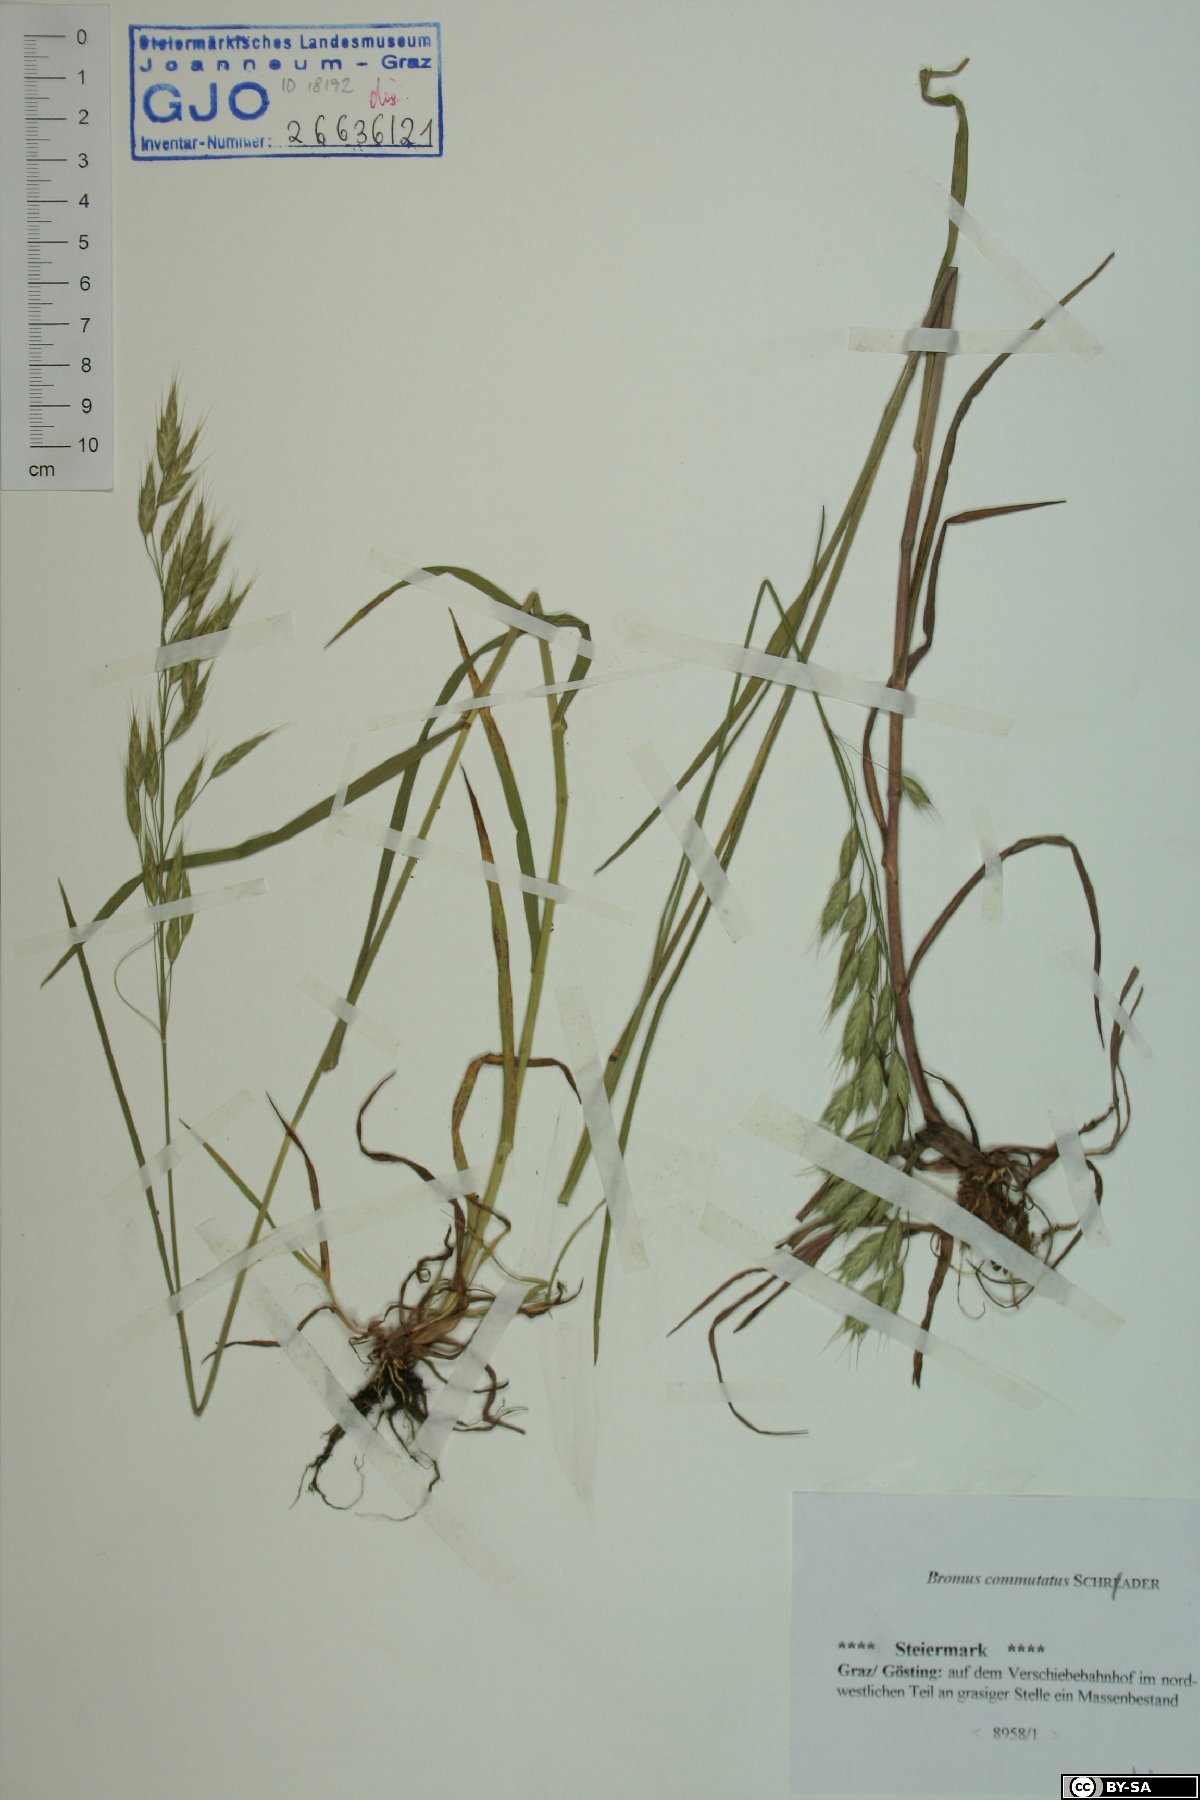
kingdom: Plantae
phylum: Tracheophyta
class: Liliopsida
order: Poales
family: Poaceae
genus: Bromus
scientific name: Bromus commutatus
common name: Meadow brome
